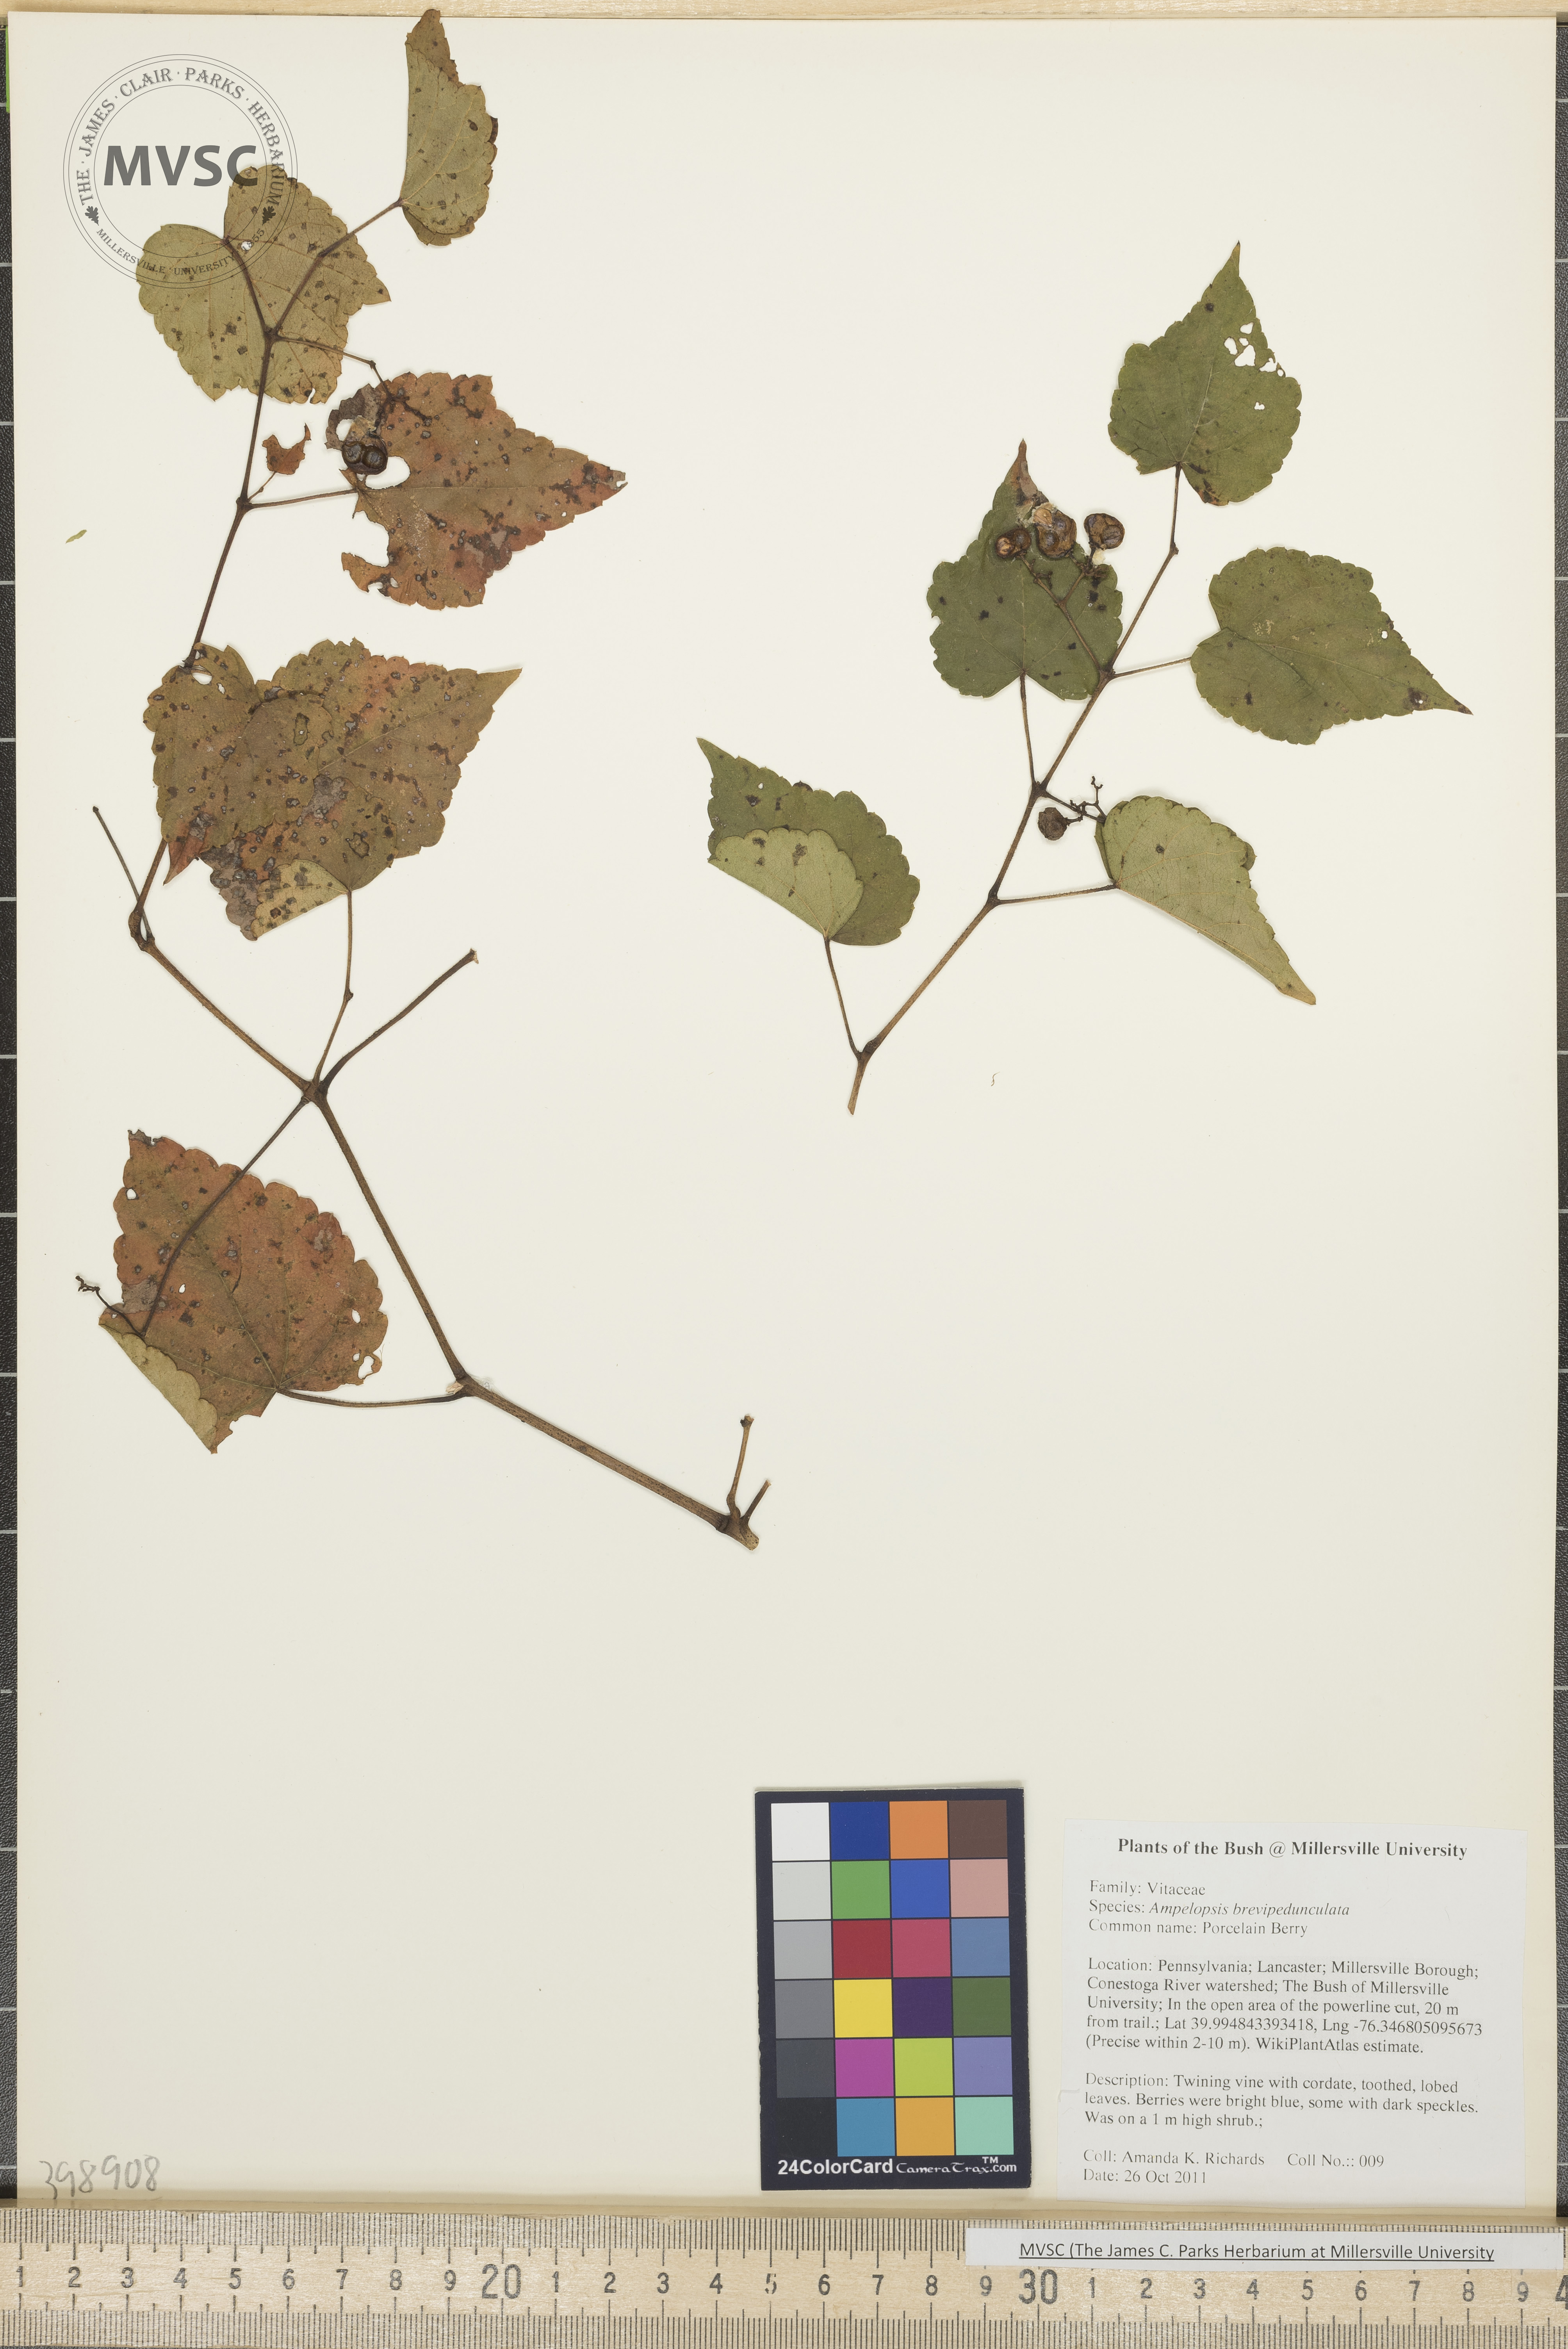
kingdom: Plantae
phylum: Tracheophyta
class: Magnoliopsida
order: Vitales
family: Vitaceae
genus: Ampelopsis
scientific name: Ampelopsis brevipedunculata
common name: Porcelain-berry
